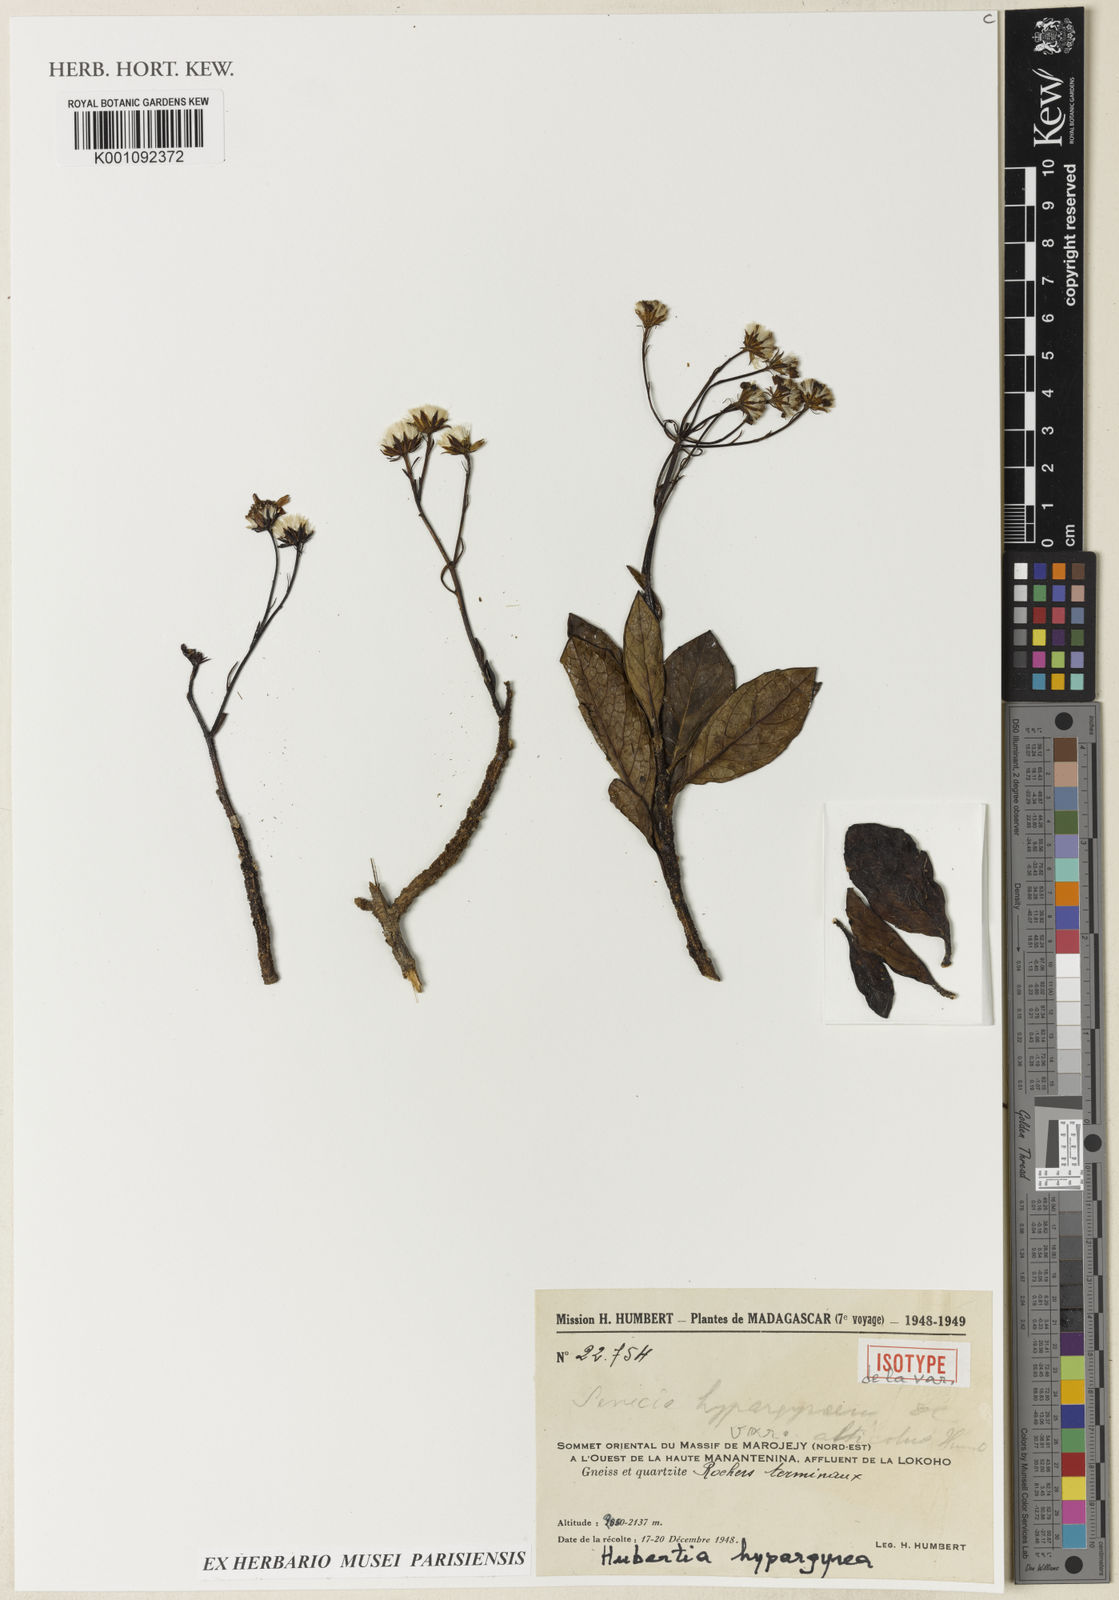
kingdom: Plantae
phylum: Tracheophyta
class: Magnoliopsida
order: Asterales
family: Asteraceae
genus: Hubertia
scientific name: Hubertia hypargyrea
